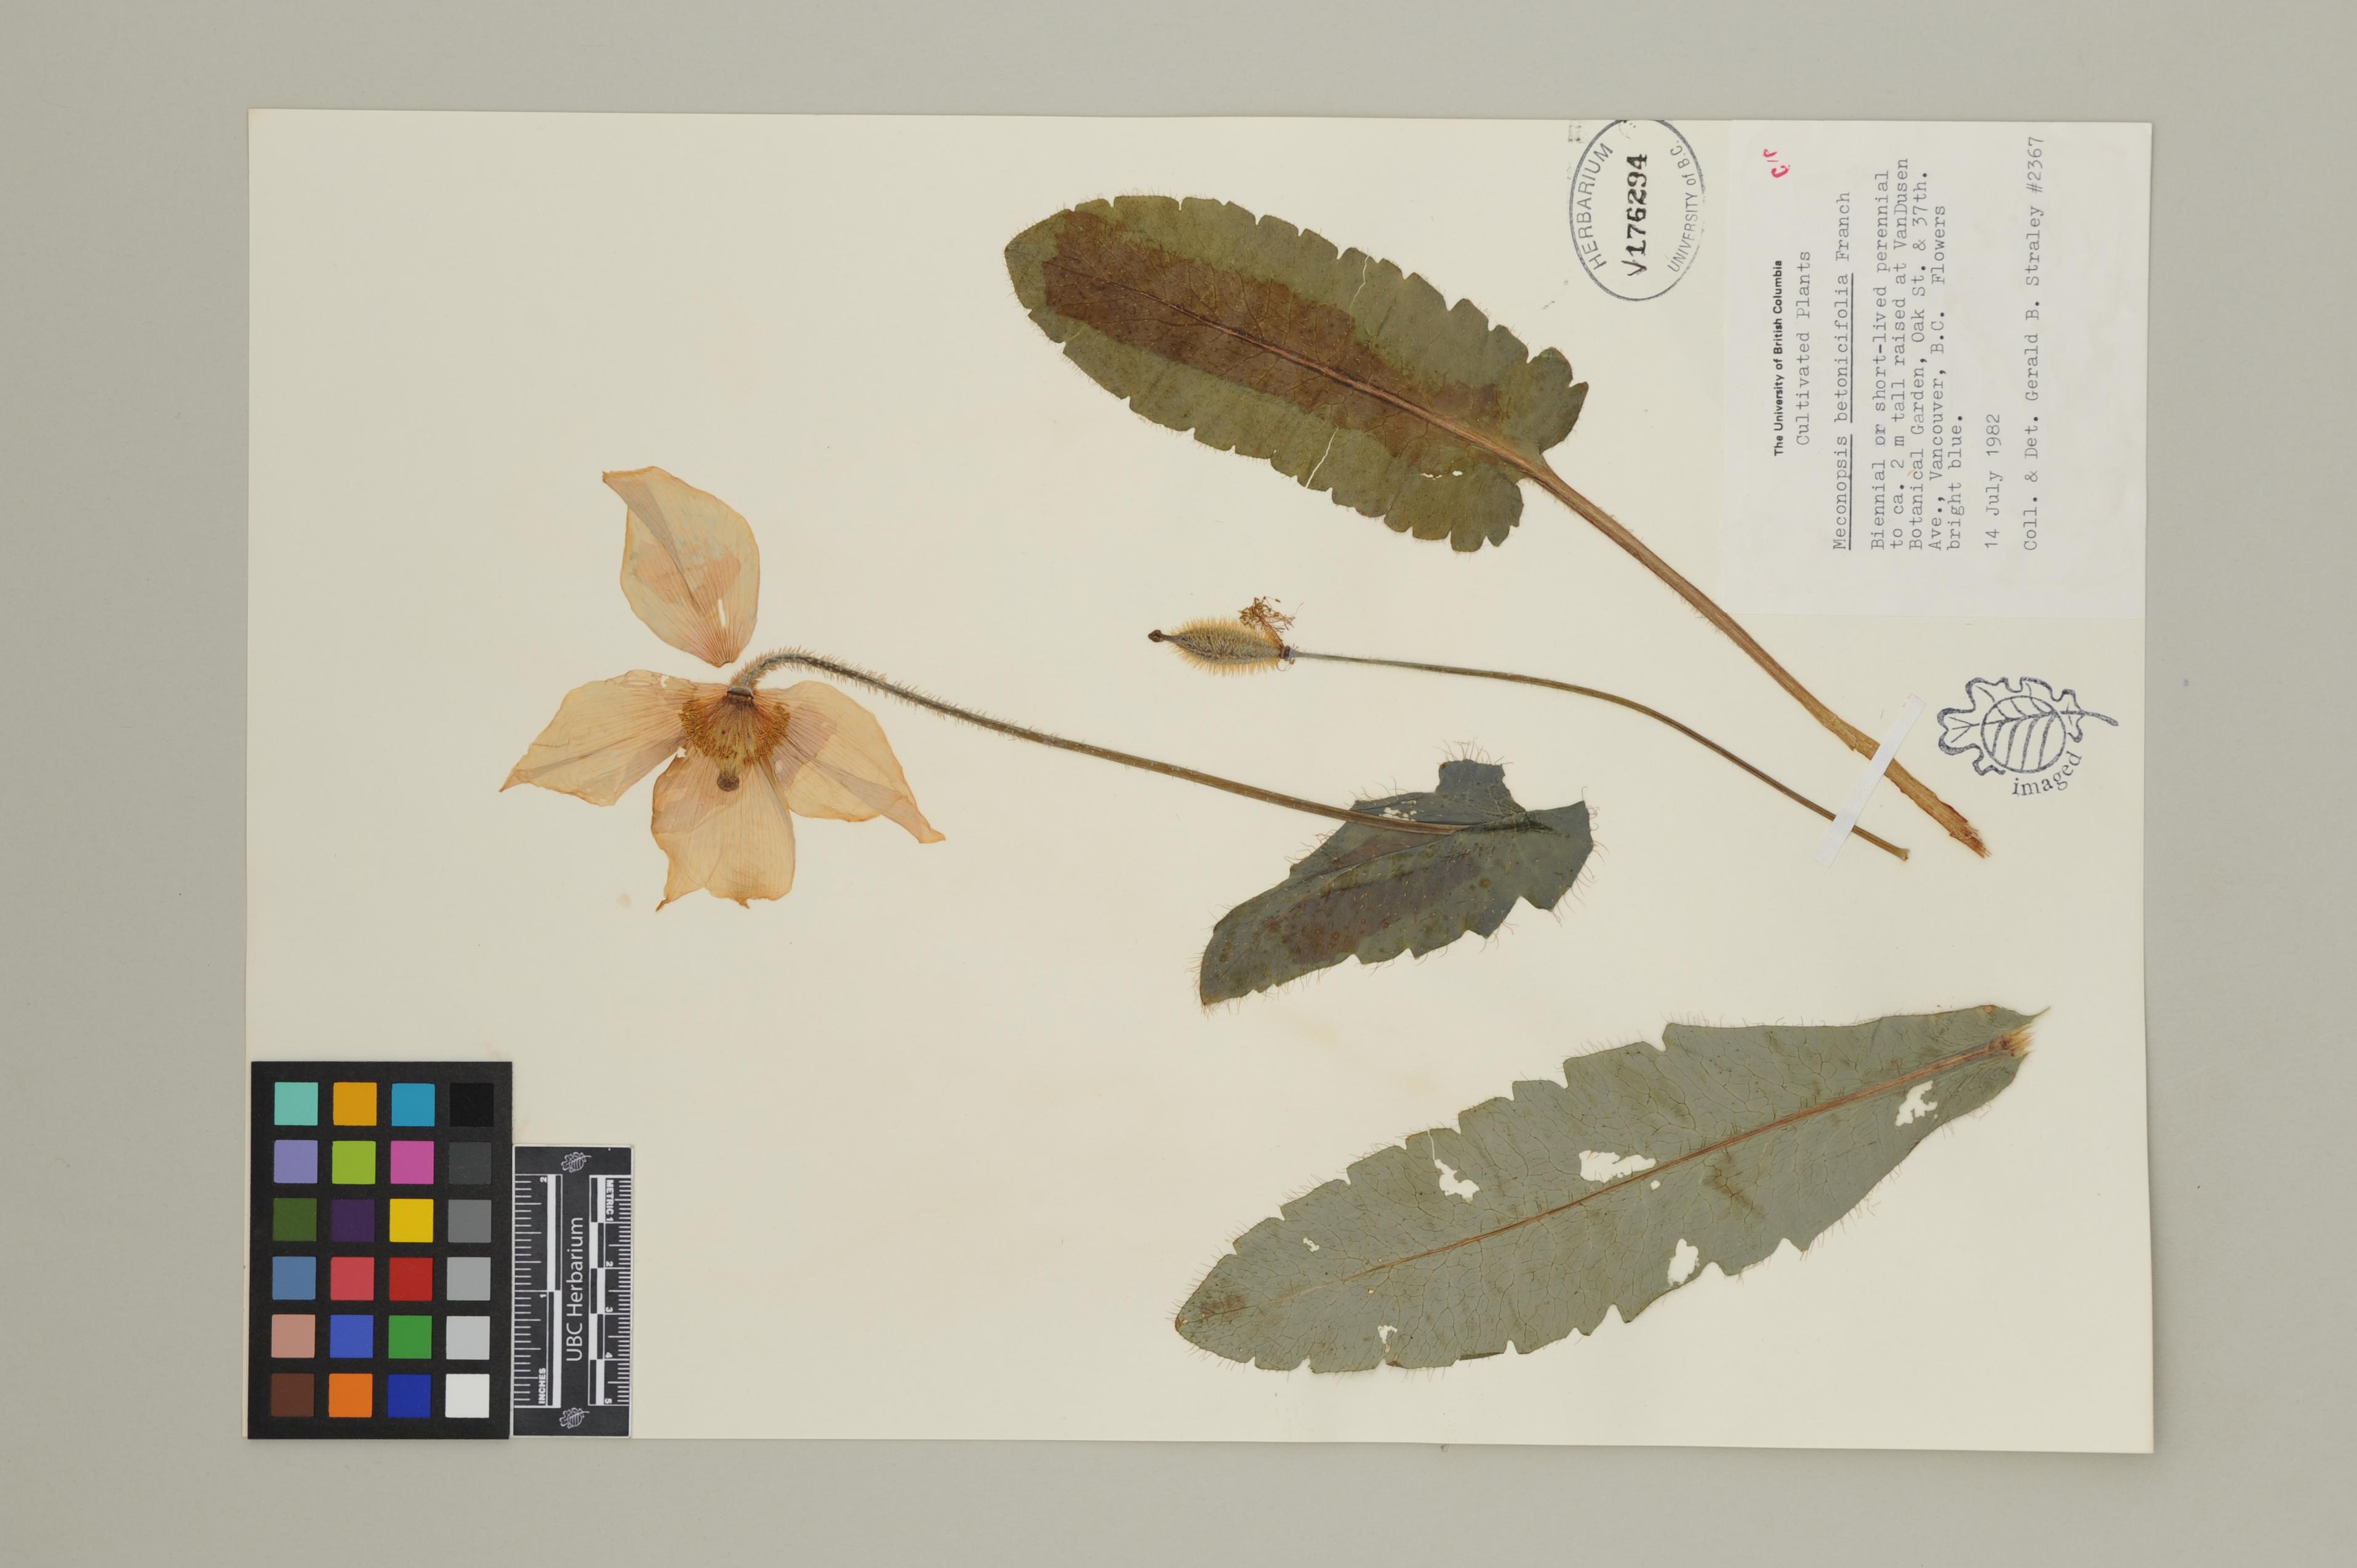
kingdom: Plantae
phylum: Tracheophyta
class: Magnoliopsida
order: Ranunculales
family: Papaveraceae
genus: Cathcartia
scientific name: Cathcartia betonicifolia
